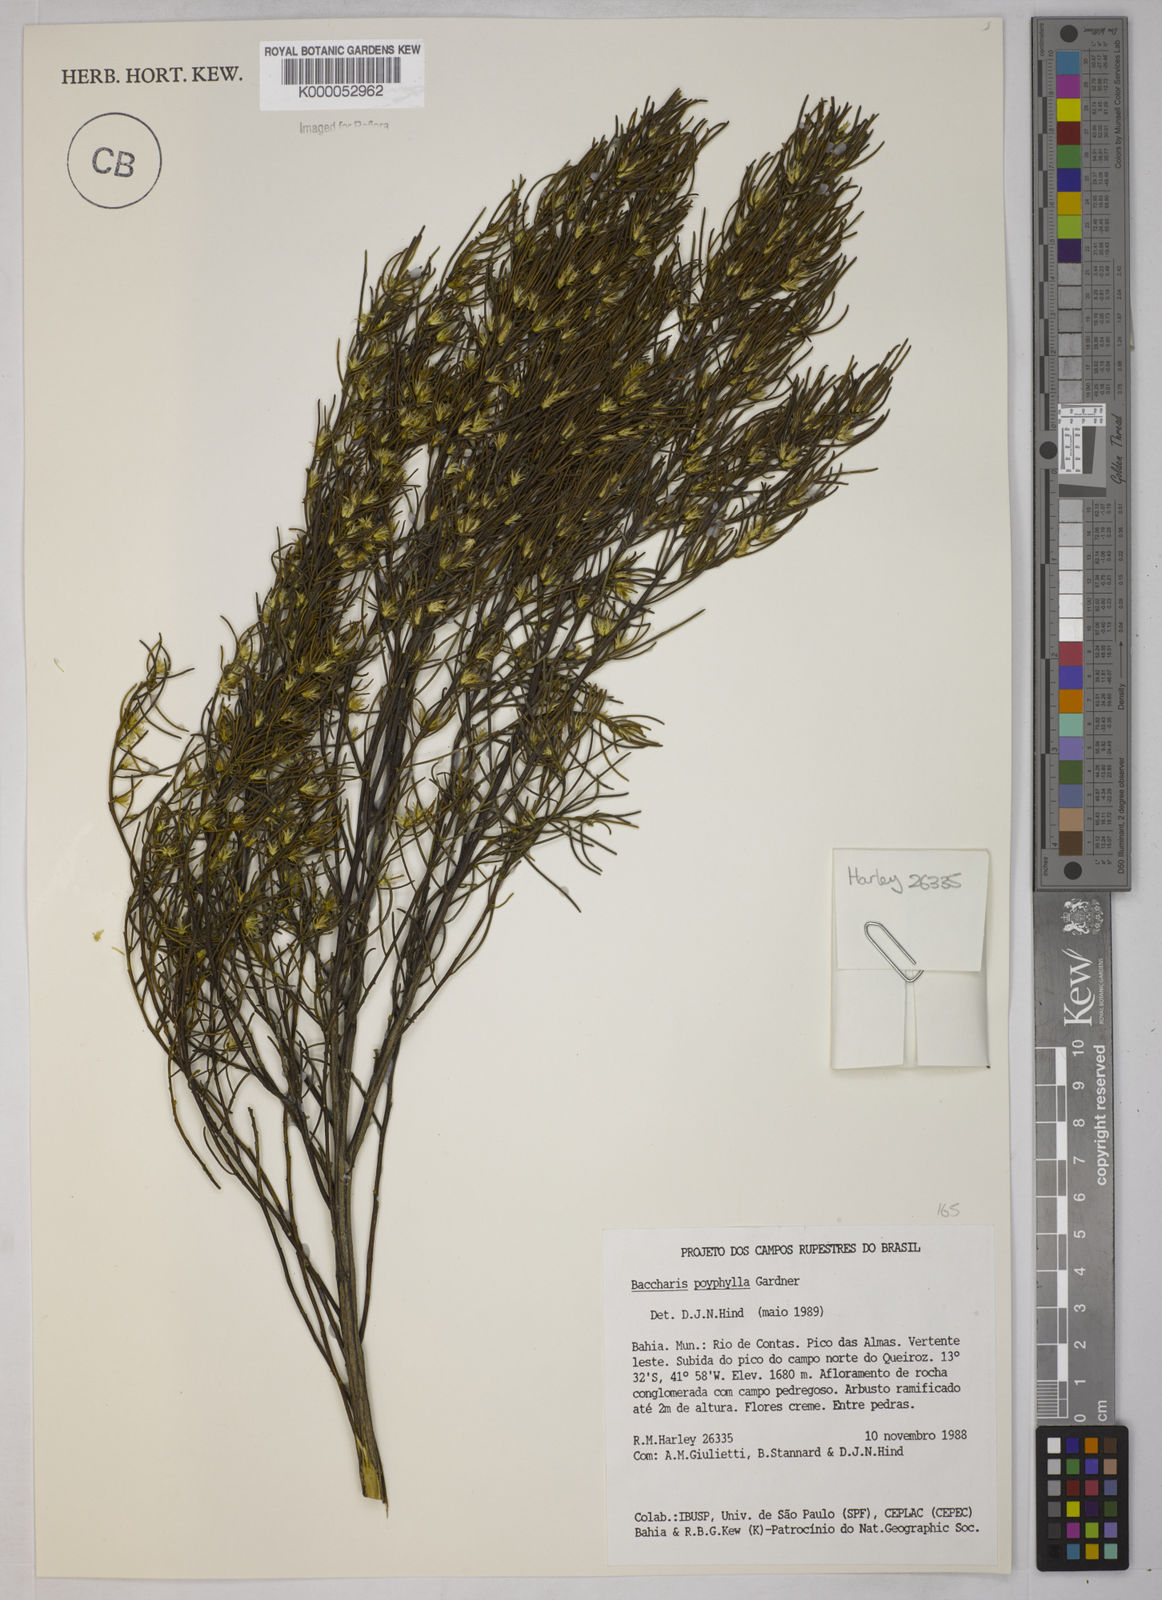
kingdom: Plantae
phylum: Tracheophyta
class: Magnoliopsida
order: Asterales
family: Asteraceae
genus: Baccharis
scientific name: Baccharis polyphylla
